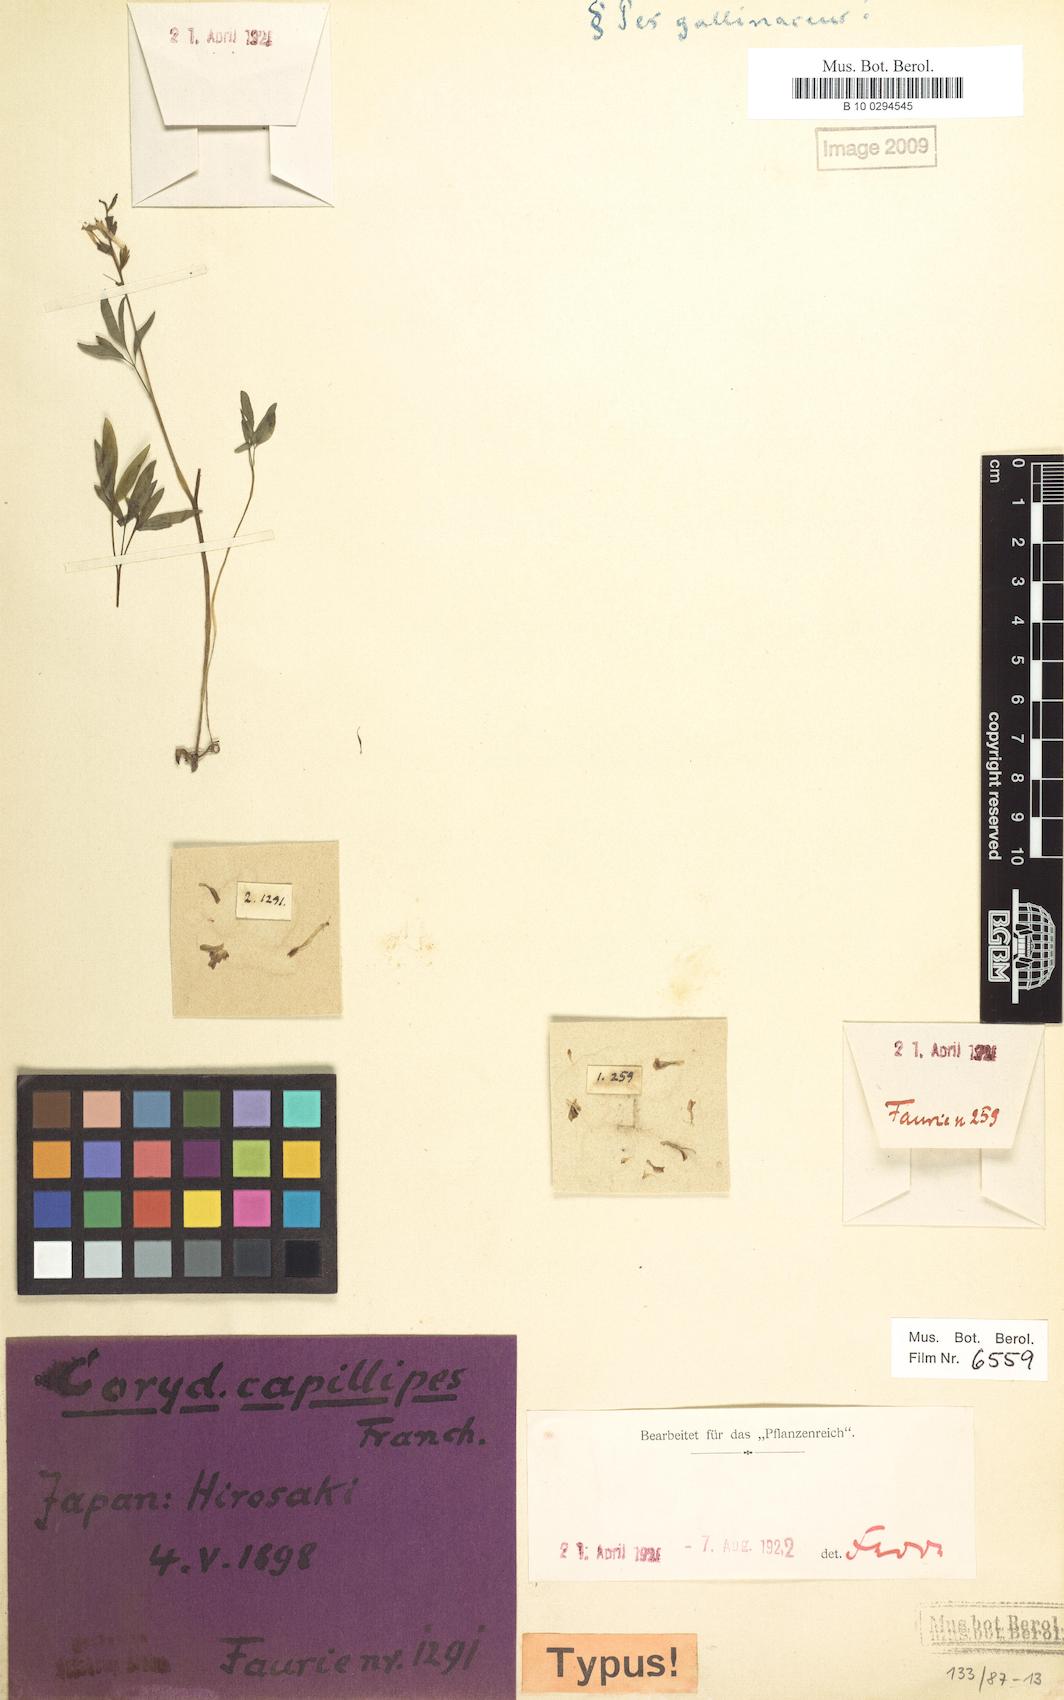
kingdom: Plantae
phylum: Tracheophyta
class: Magnoliopsida
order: Ranunculales
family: Papaveraceae
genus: Corydalis
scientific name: Corydalis orthoceras
